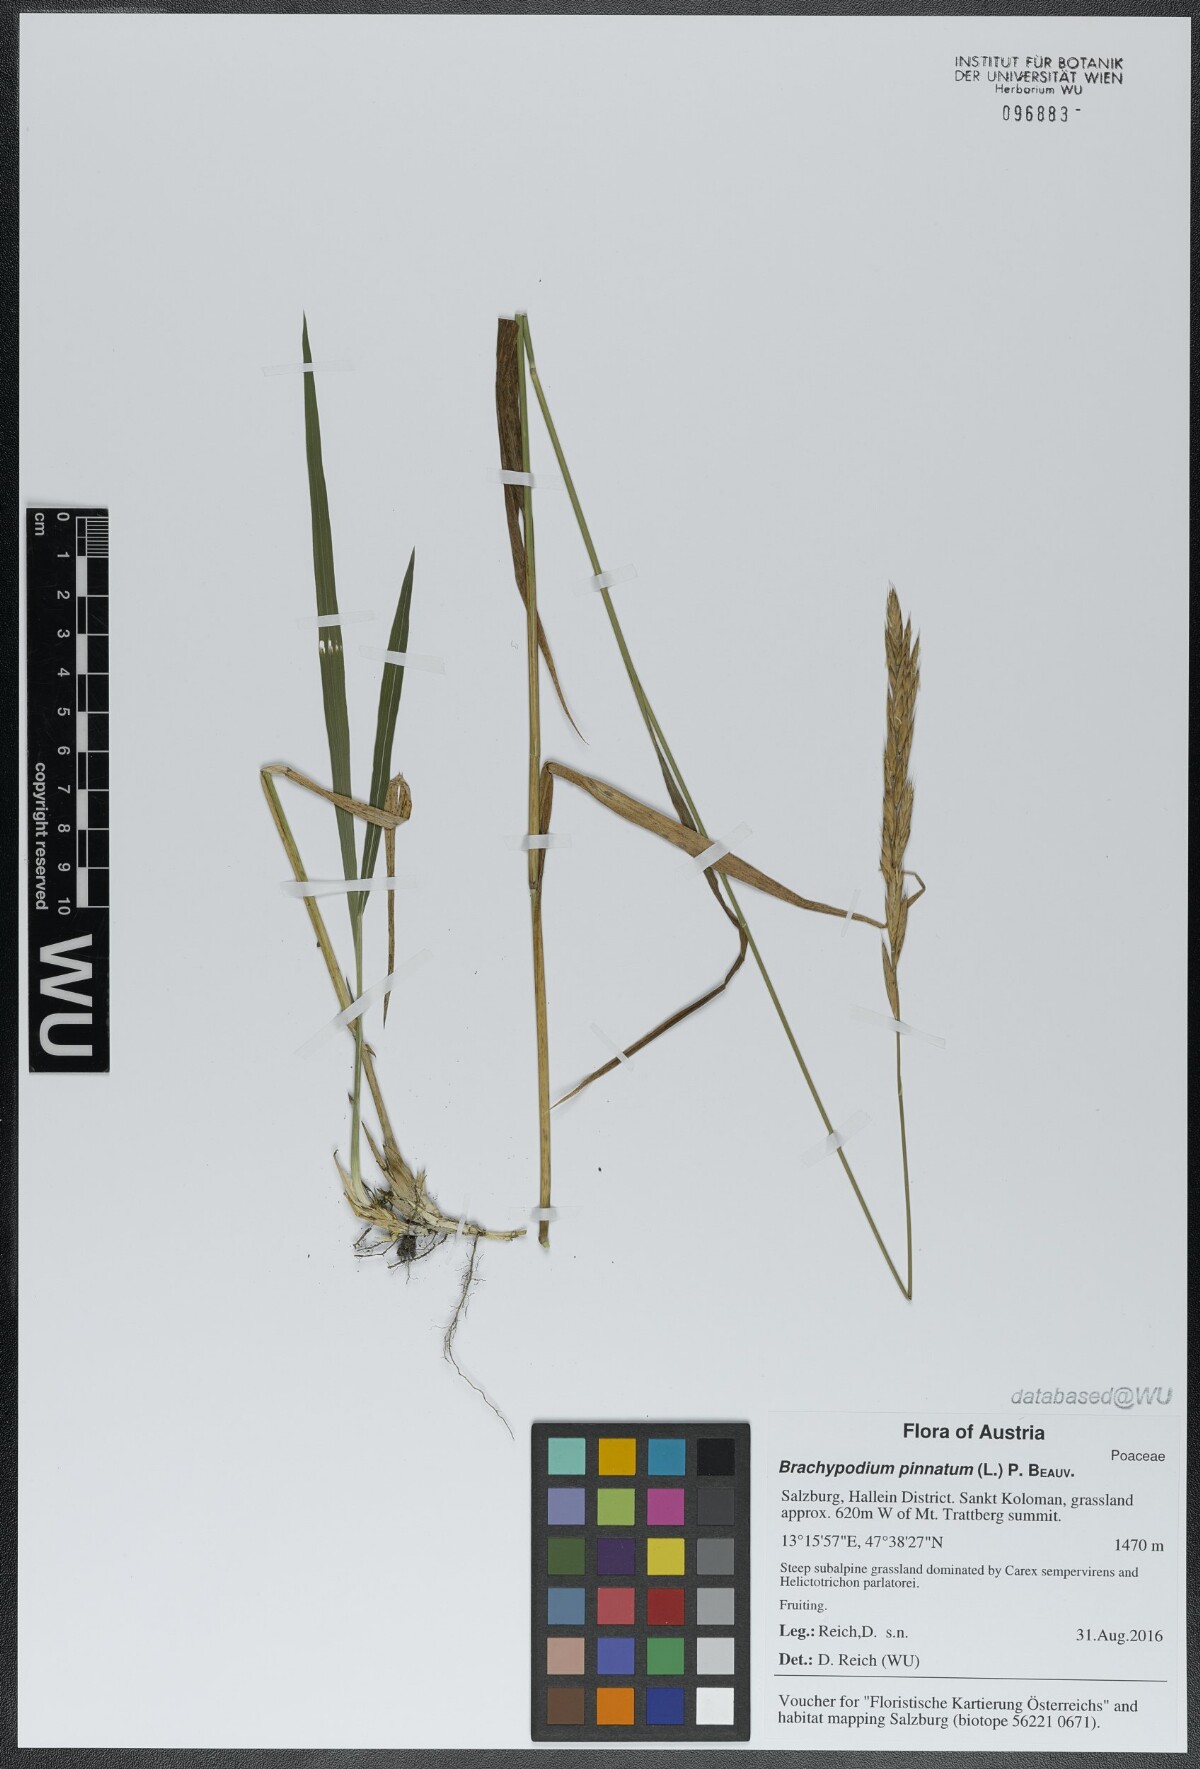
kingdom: Plantae
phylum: Tracheophyta
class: Liliopsida
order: Poales
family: Poaceae
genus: Brachypodium
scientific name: Brachypodium pinnatum
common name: Tor grass
